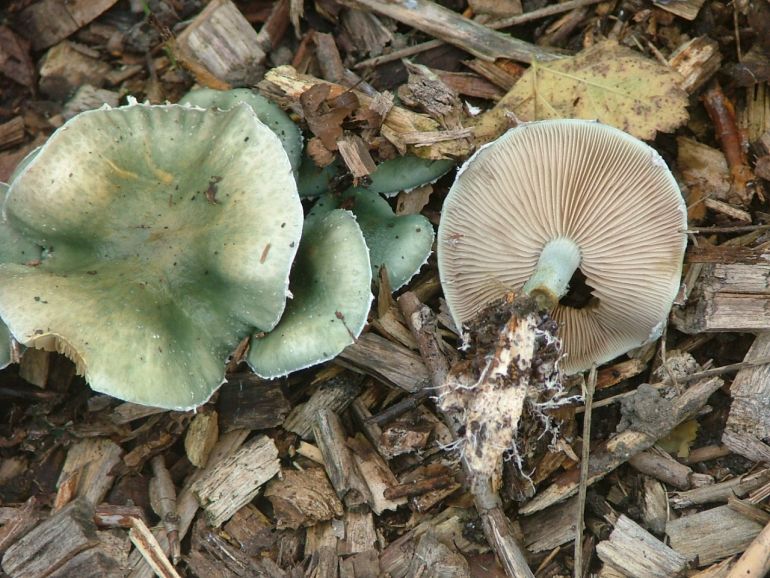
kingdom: Fungi
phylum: Basidiomycota
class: Agaricomycetes
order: Agaricales
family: Strophariaceae
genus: Stropharia
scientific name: Stropharia cyanea
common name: blågrøn bredblad
